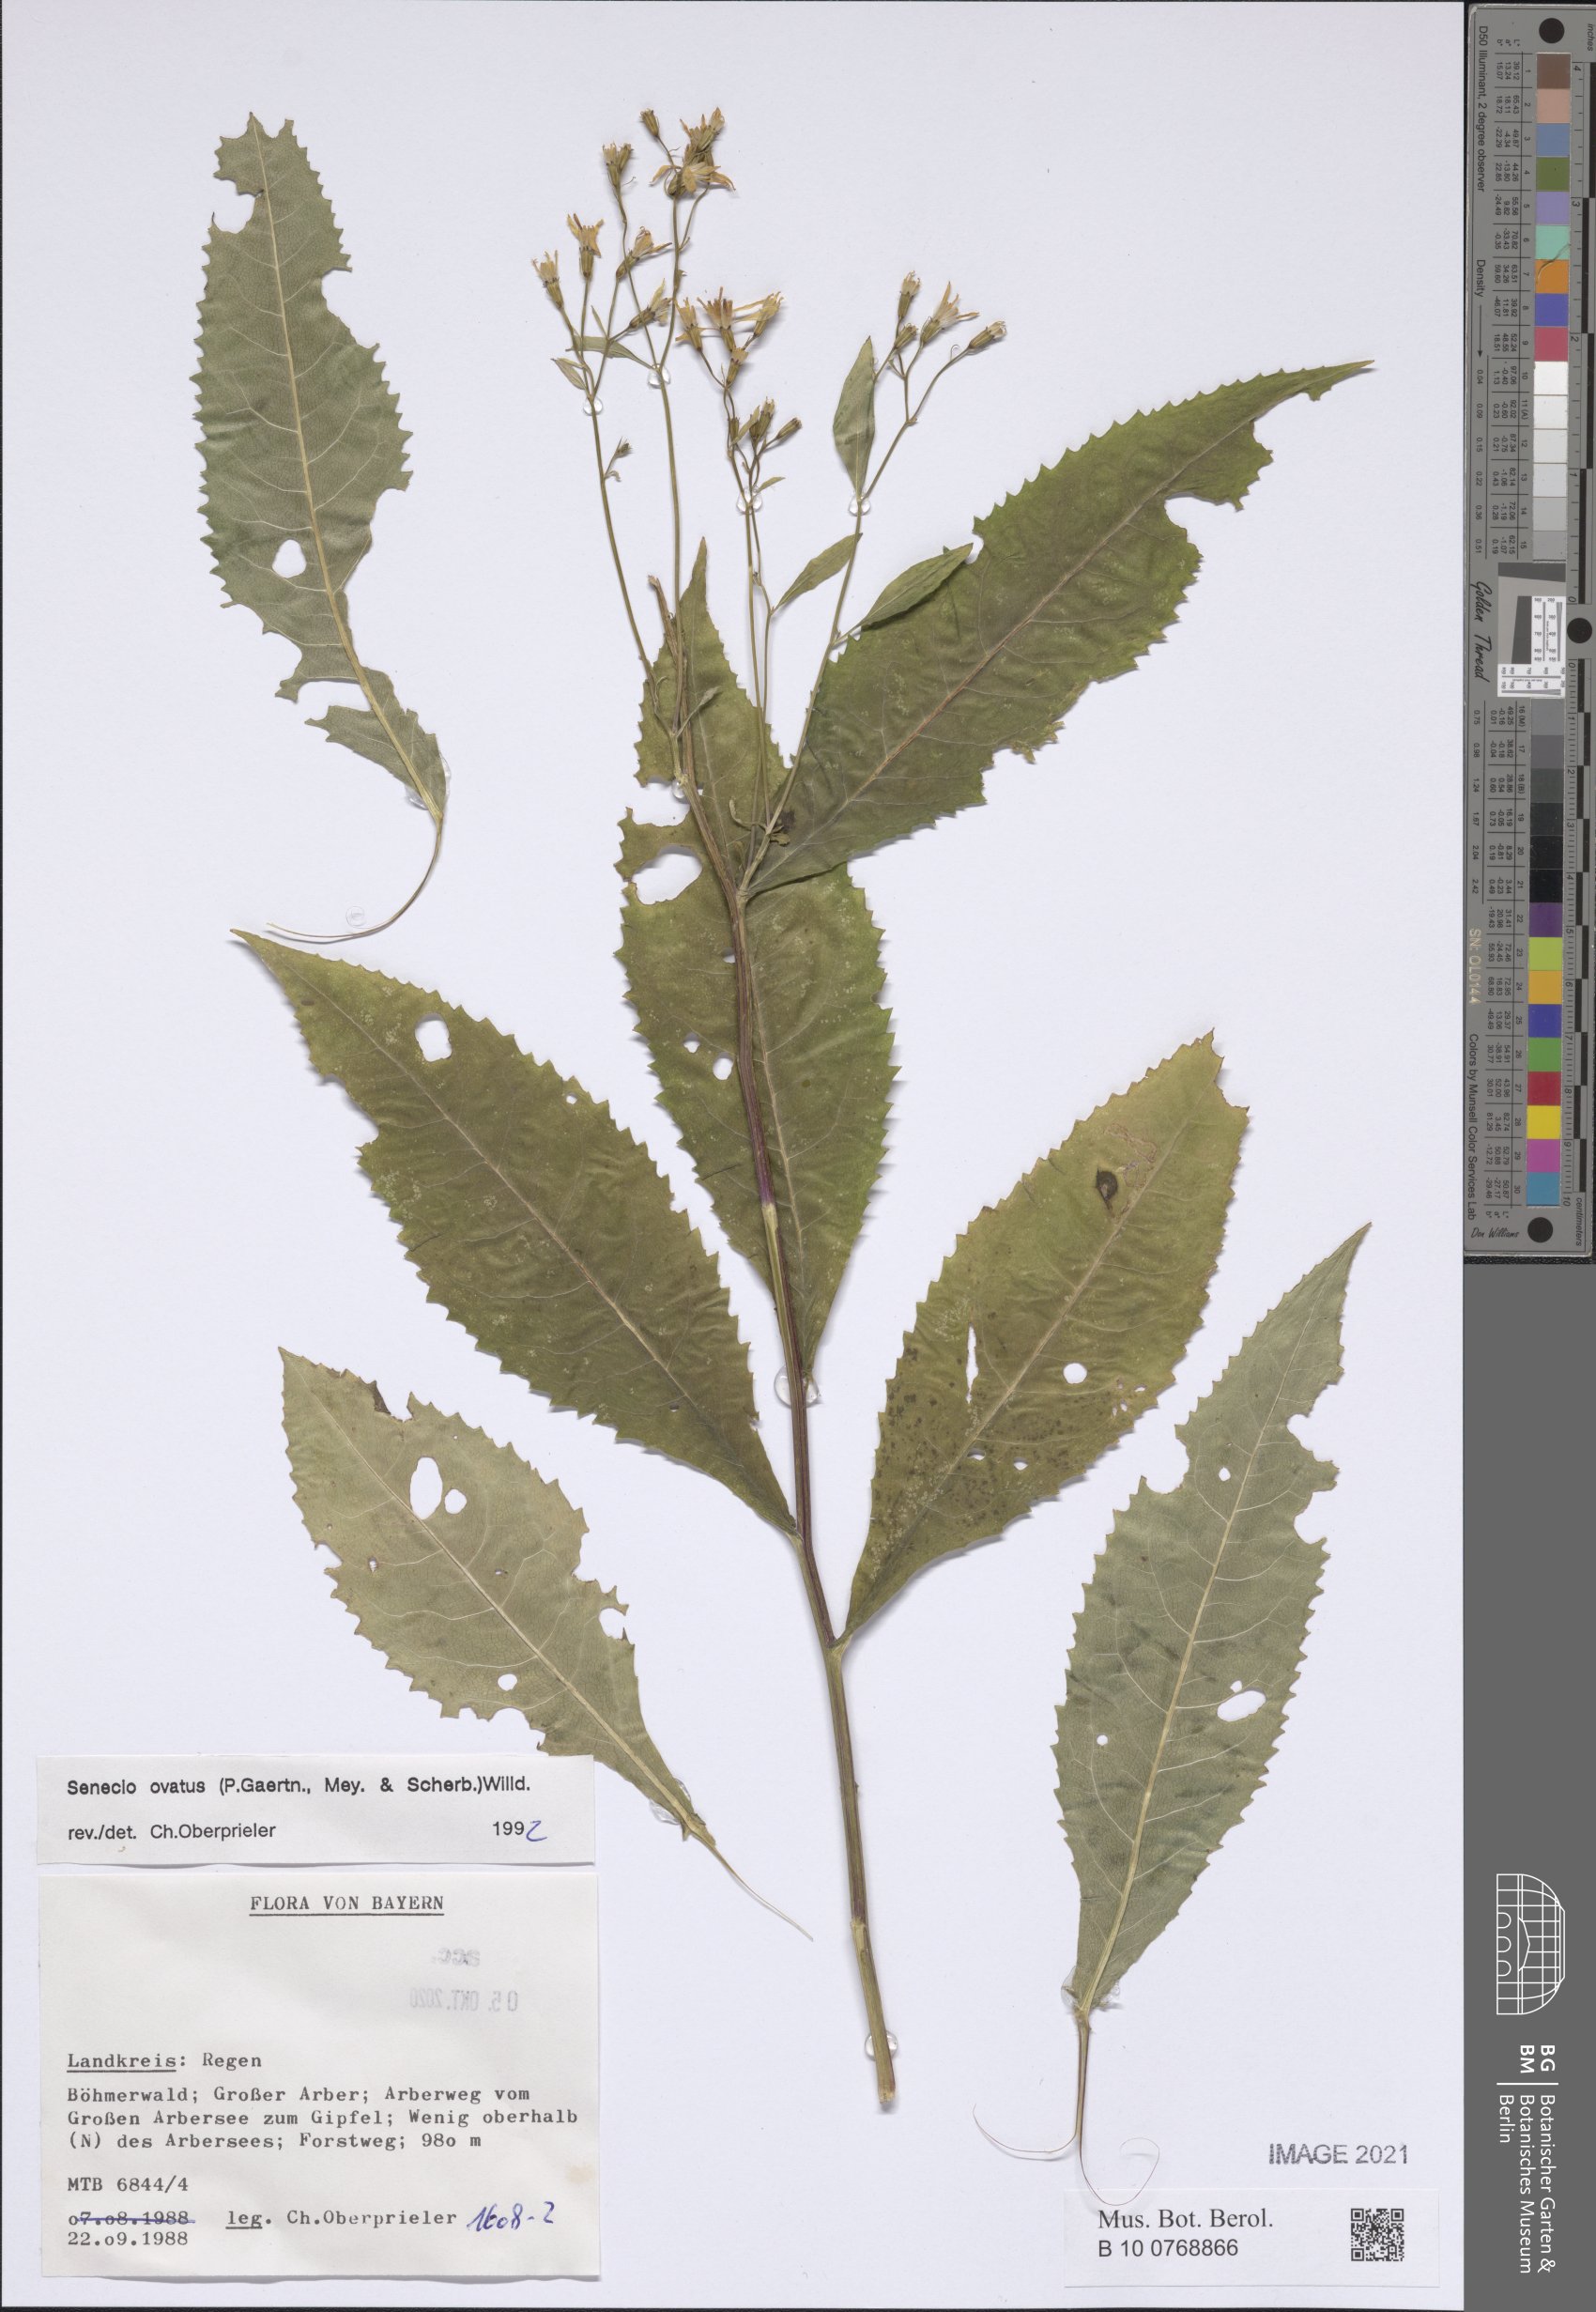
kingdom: Plantae
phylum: Tracheophyta
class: Magnoliopsida
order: Asterales
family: Asteraceae
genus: Senecio
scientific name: Senecio ovatus
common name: Wood ragwort
